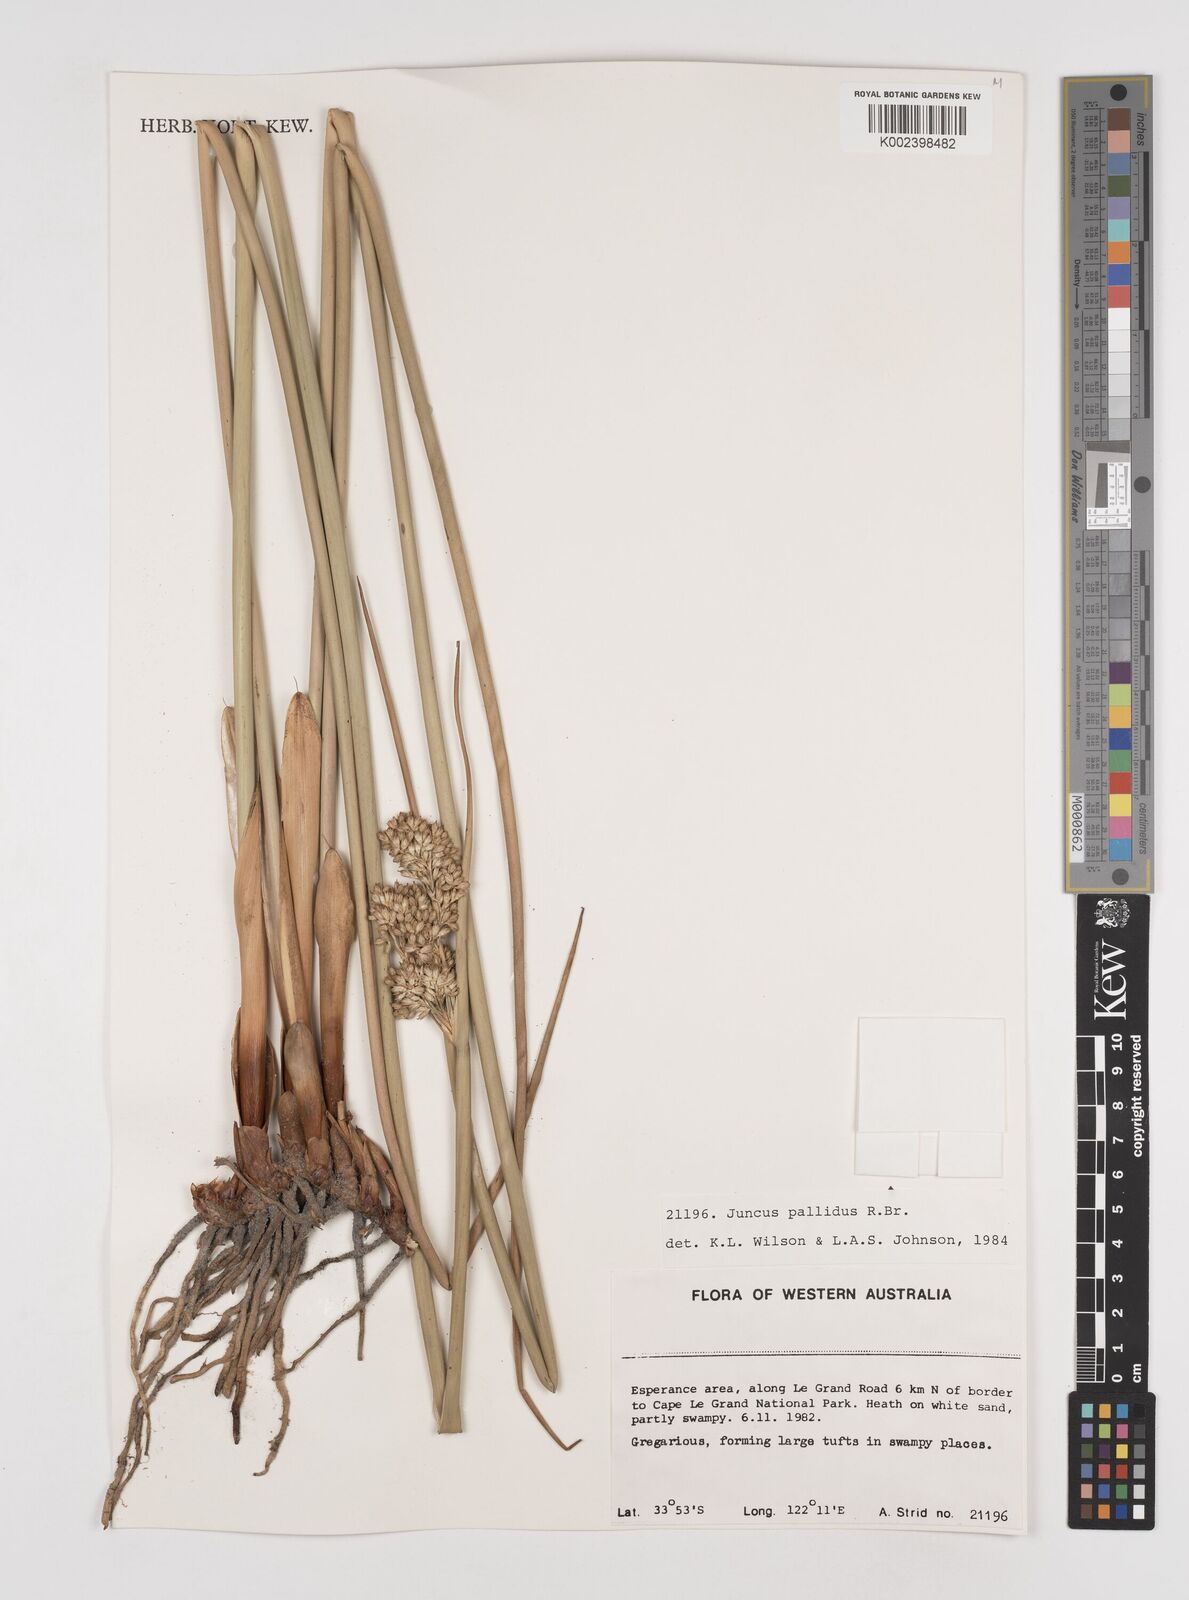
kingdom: Plantae
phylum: Tracheophyta
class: Liliopsida
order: Poales
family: Juncaceae
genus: Juncus
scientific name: Juncus pallidus
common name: Great soft-rush
